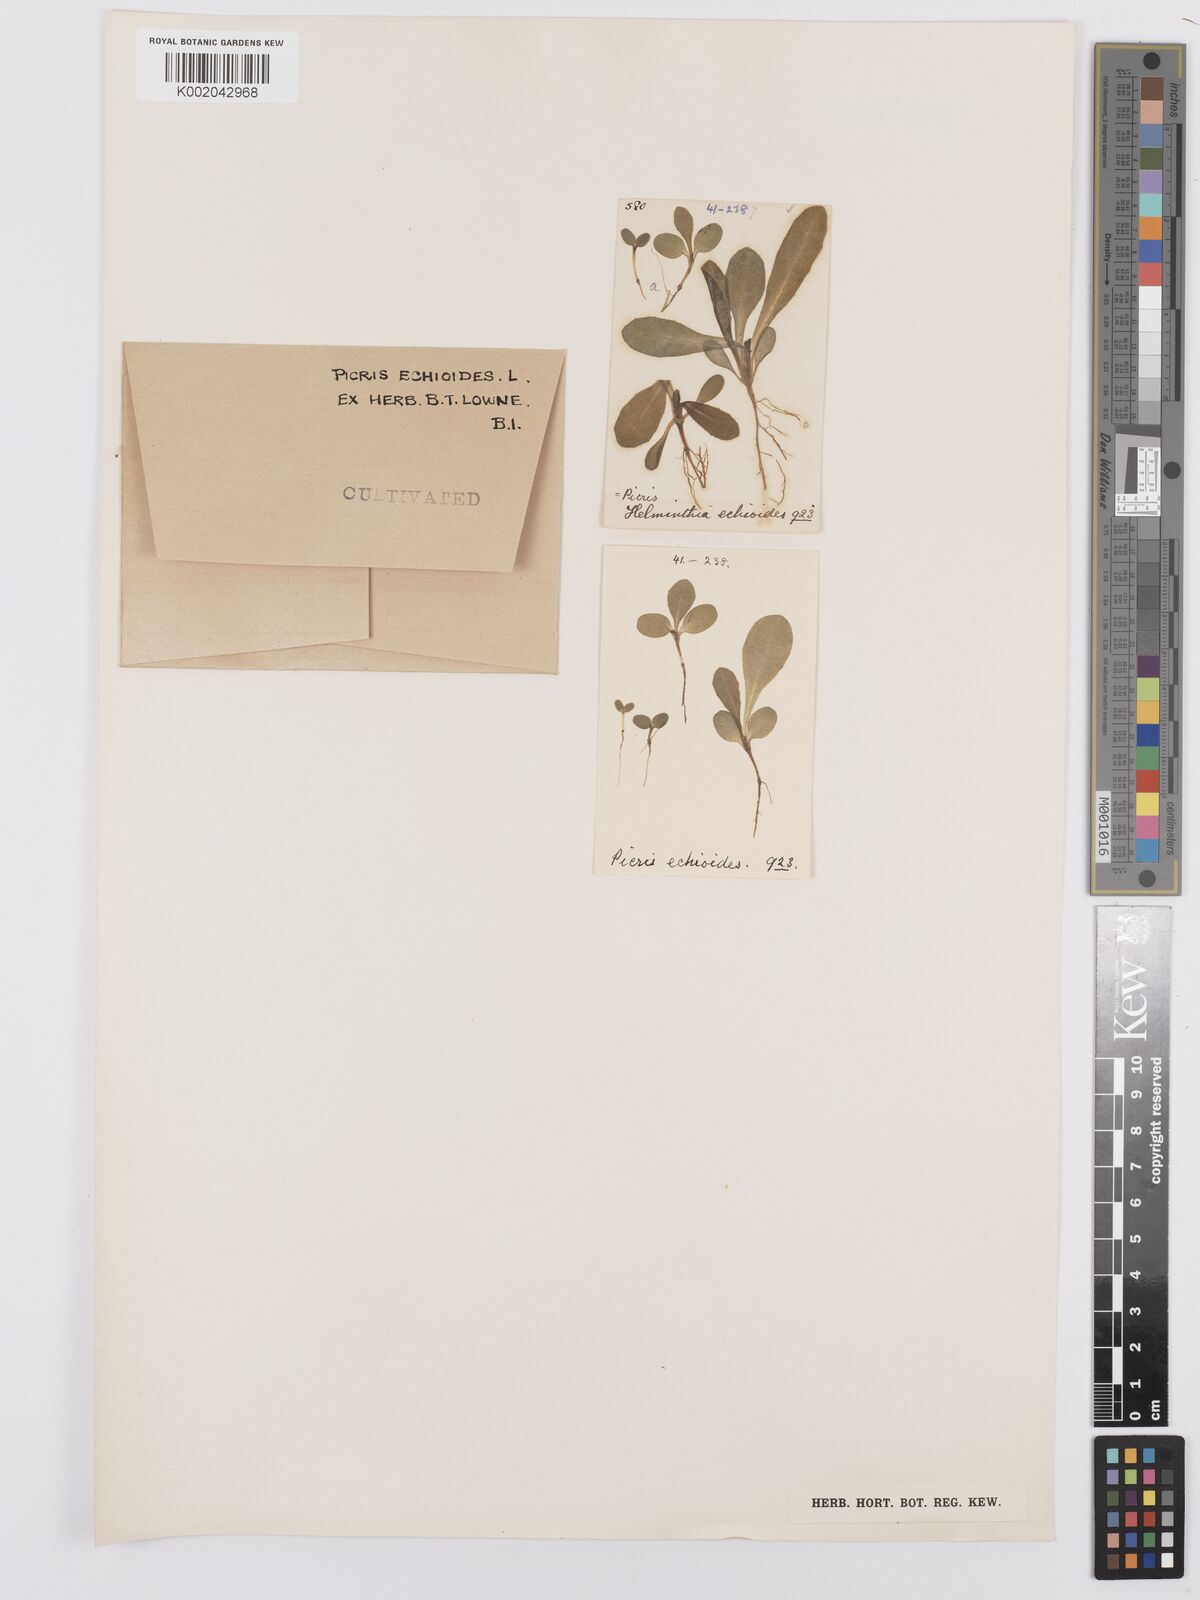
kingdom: Plantae
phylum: Tracheophyta
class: Magnoliopsida
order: Asterales
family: Asteraceae
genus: Helminthotheca
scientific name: Helminthotheca echioides
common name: Ox-tongue
